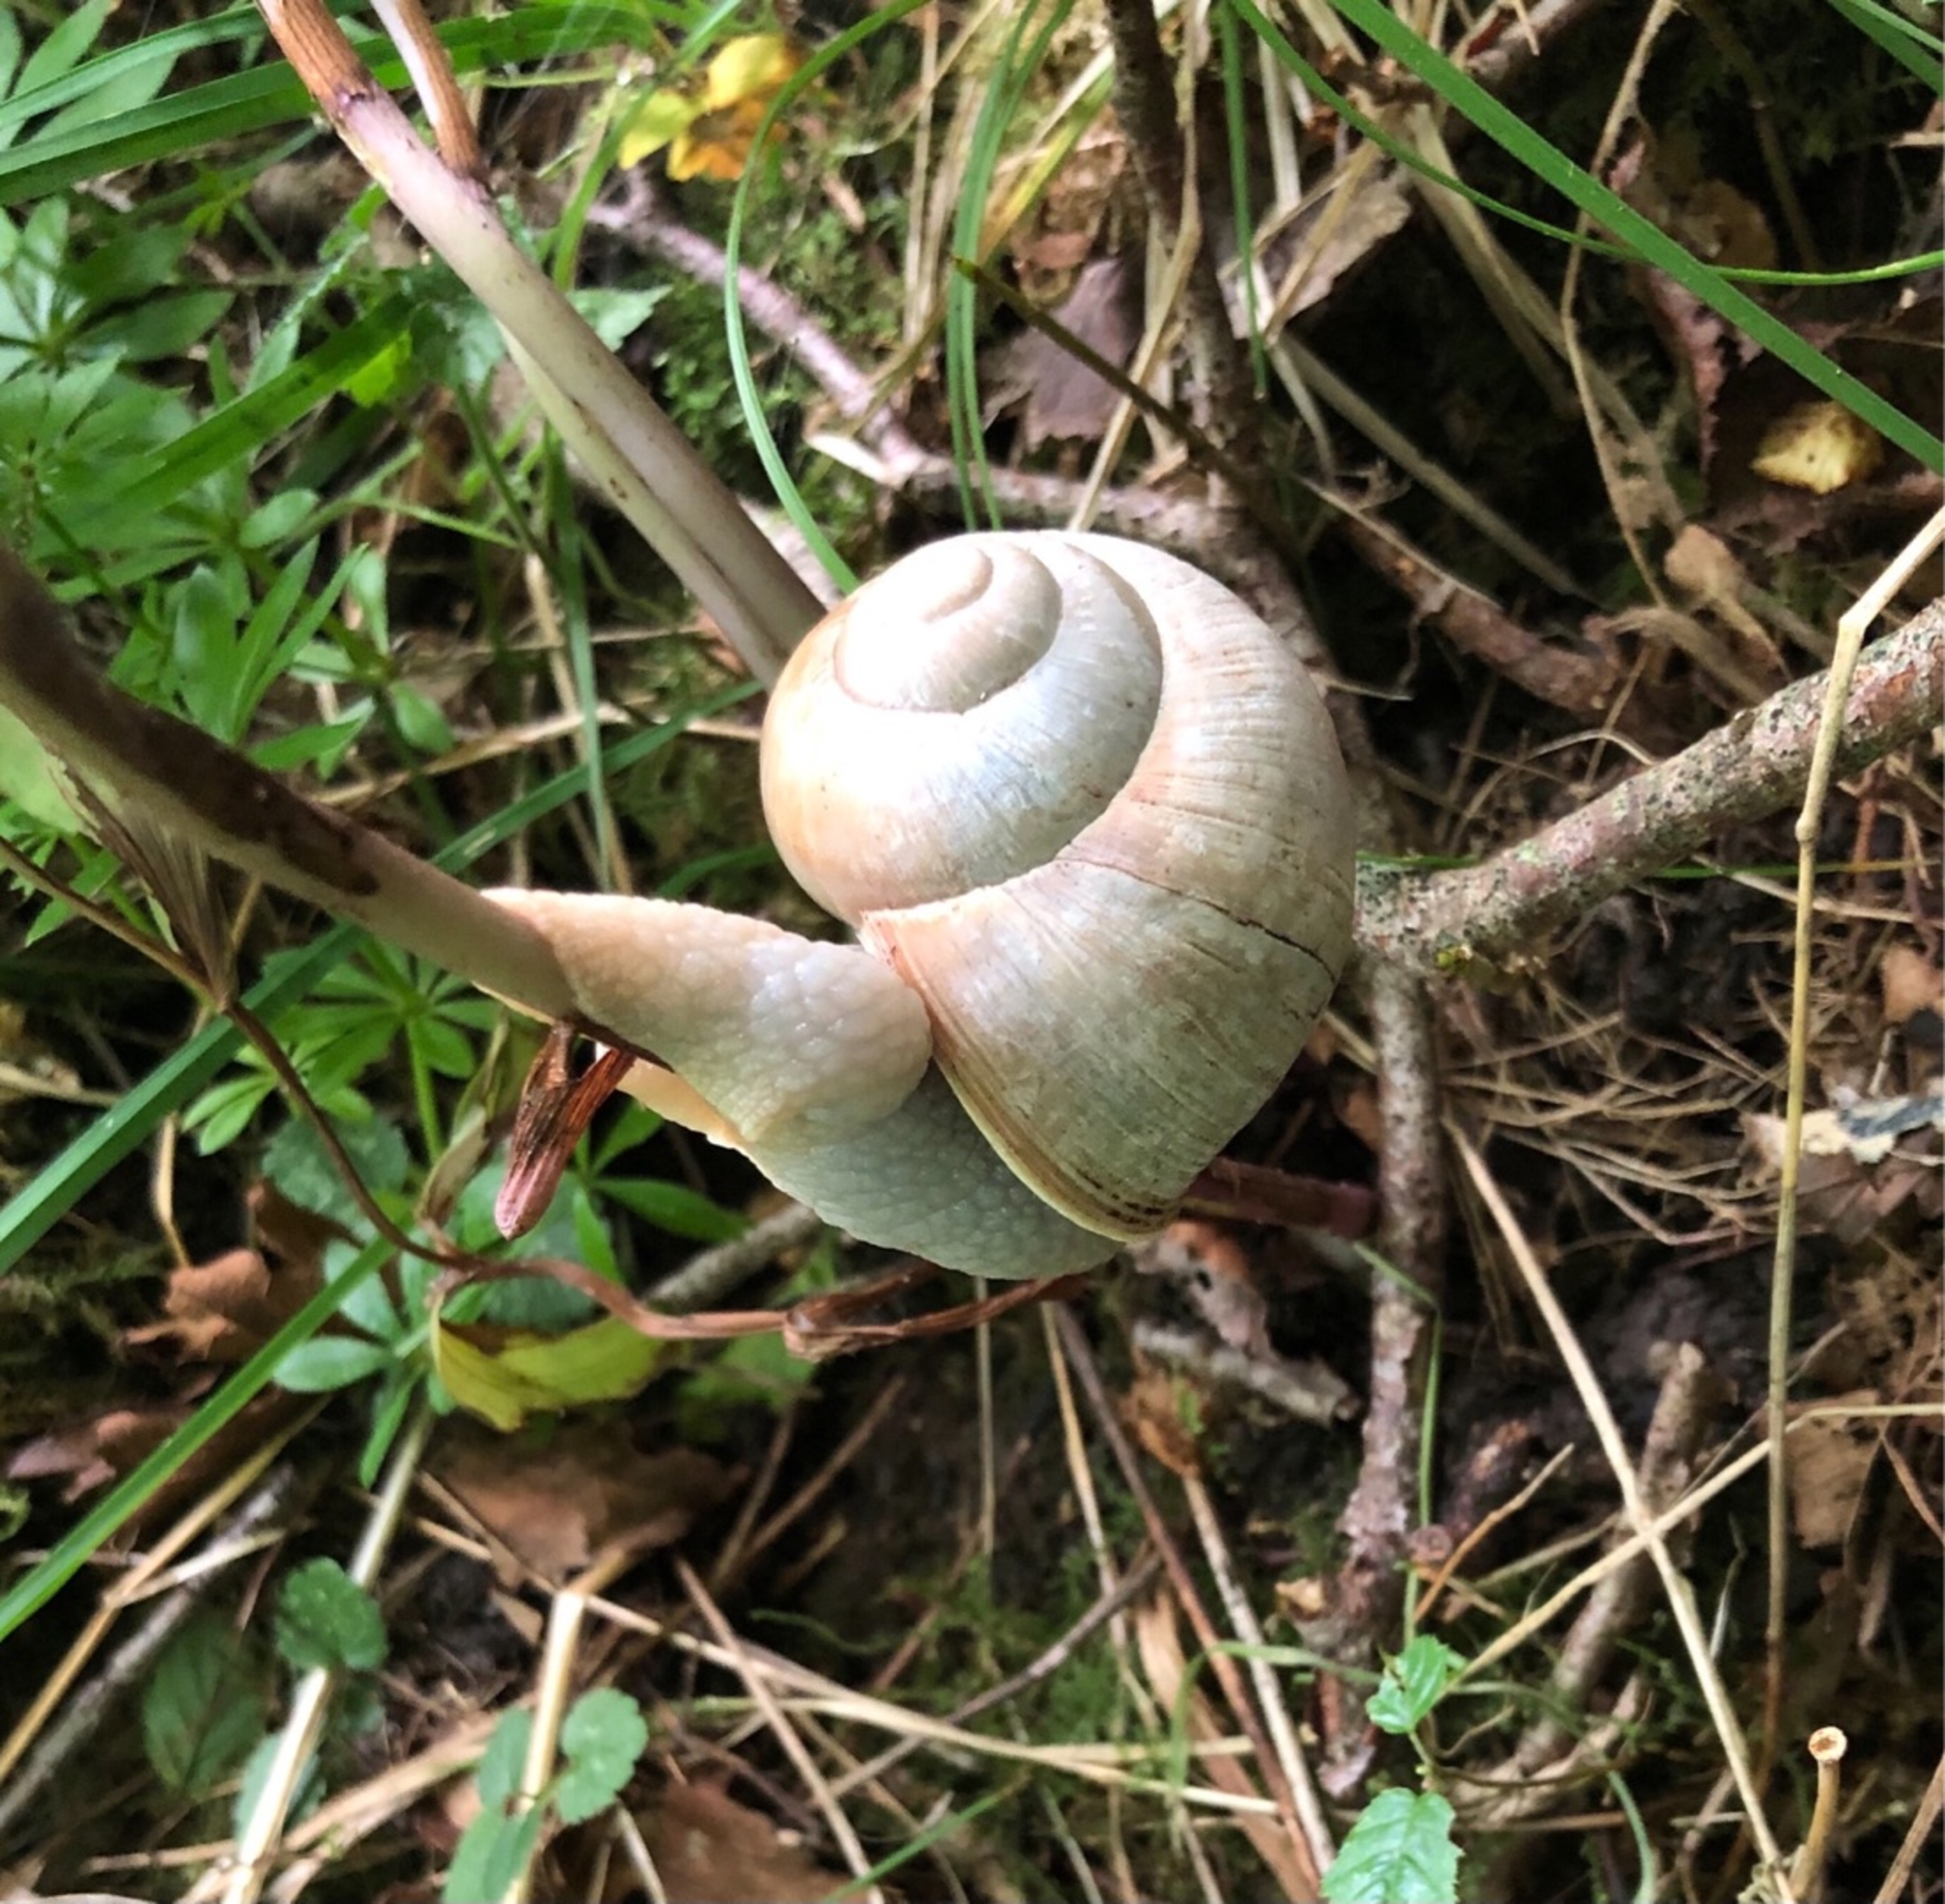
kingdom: Animalia
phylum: Mollusca
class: Gastropoda
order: Stylommatophora
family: Helicidae
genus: Helix
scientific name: Helix pomatia
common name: Vinbjergsnegl
